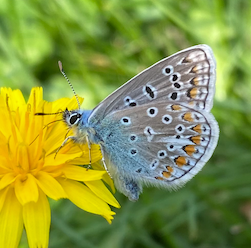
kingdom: Animalia
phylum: Arthropoda
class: Insecta
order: Lepidoptera
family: Lycaenidae
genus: Polyommatus
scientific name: Polyommatus icarus
